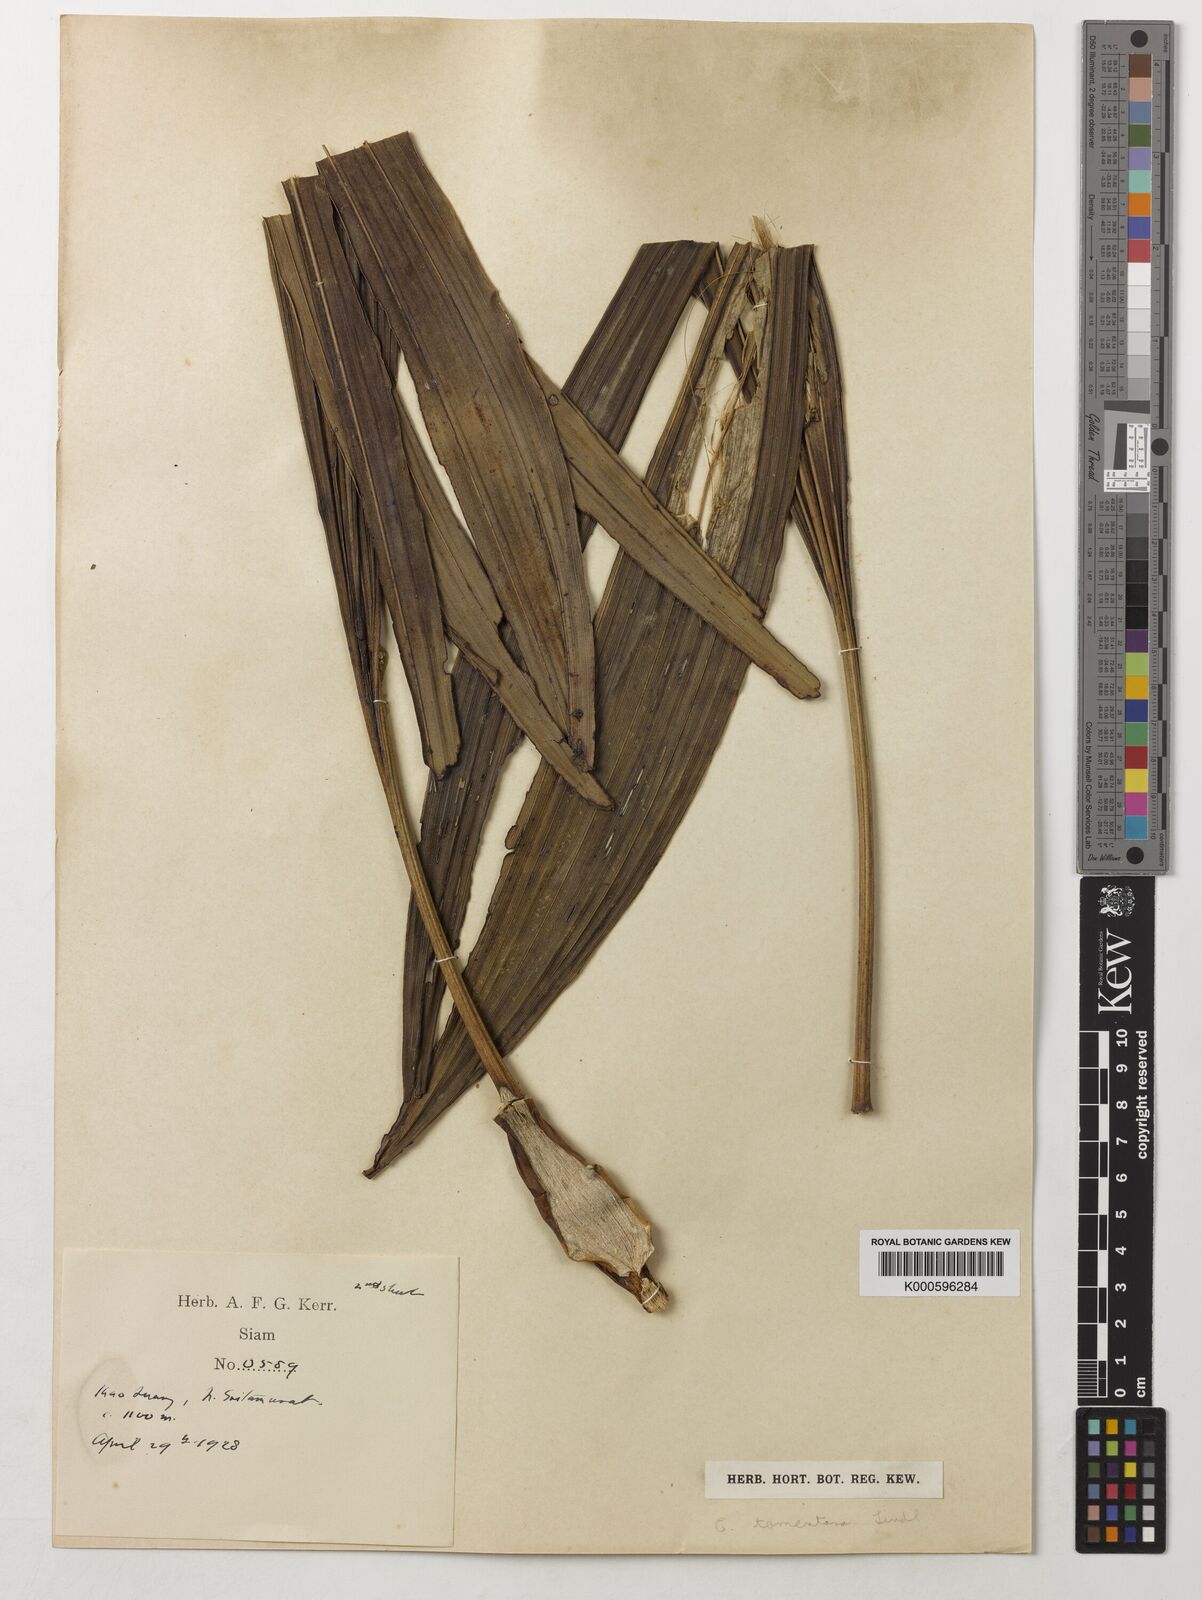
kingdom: Plantae
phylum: Tracheophyta
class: Liliopsida
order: Asparagales
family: Orchidaceae
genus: Coelogyne
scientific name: Coelogyne tomentosa
